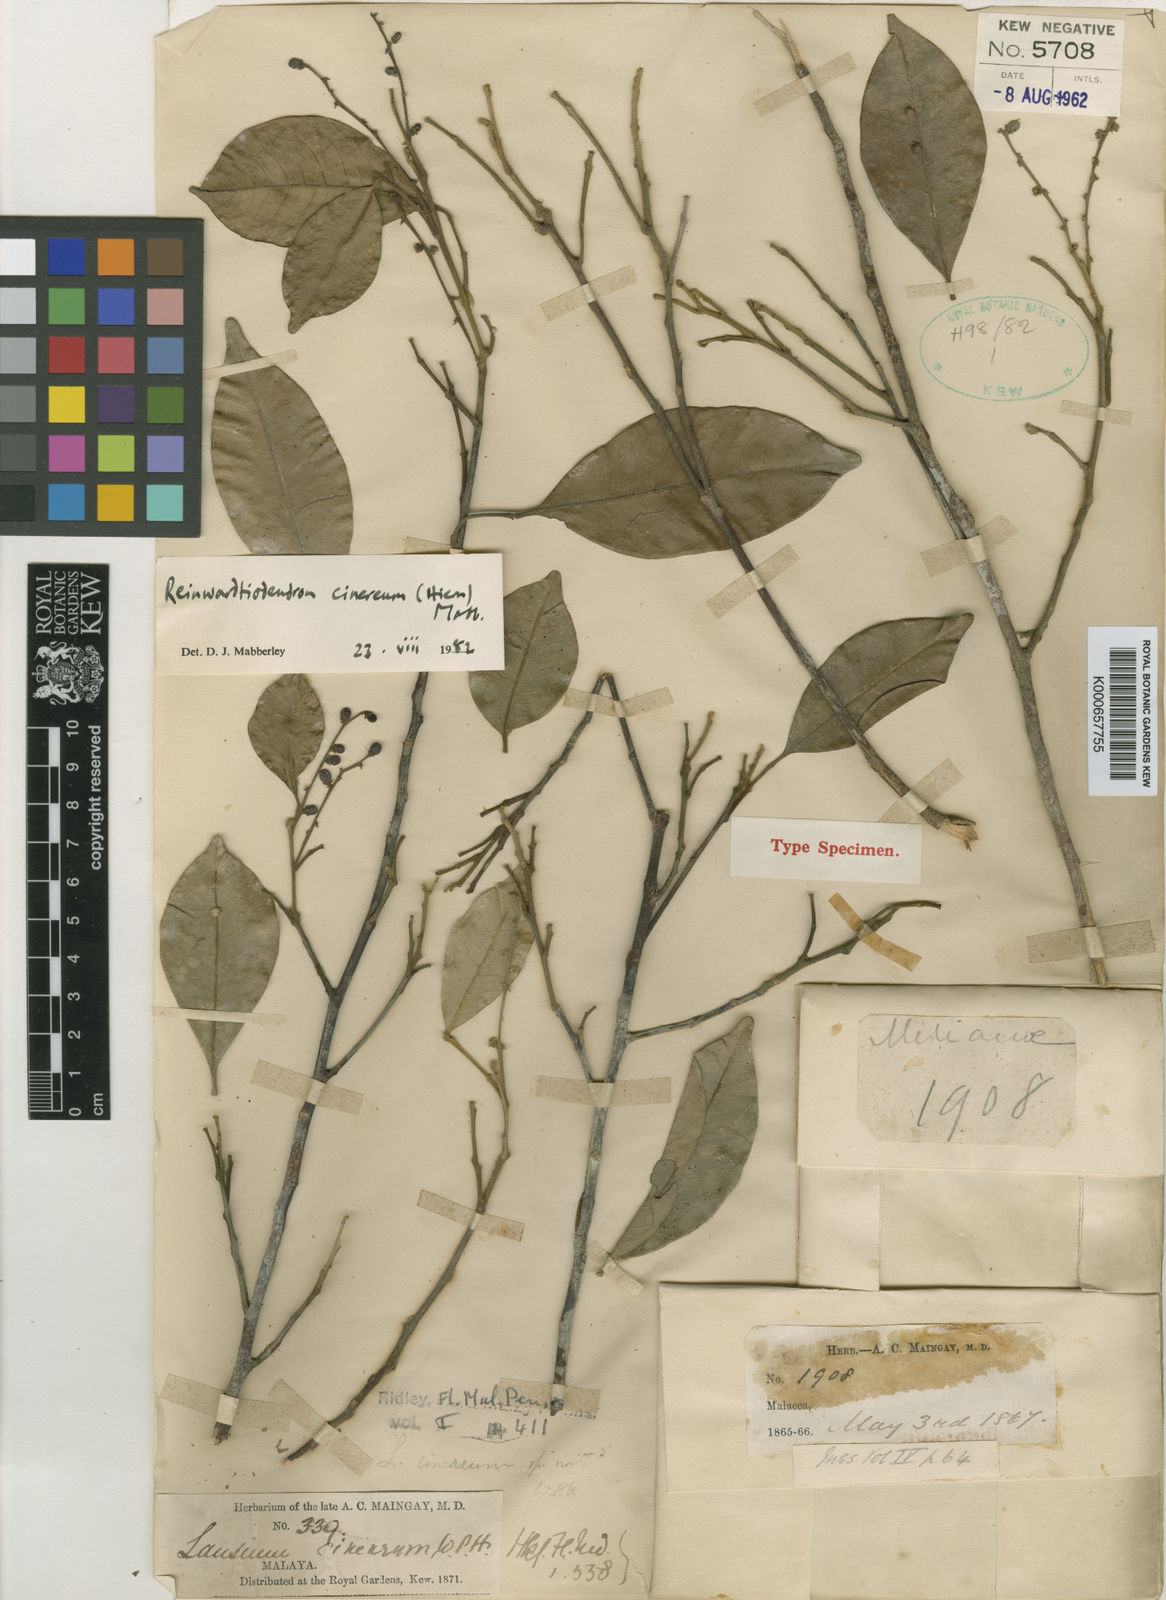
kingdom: Plantae
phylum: Tracheophyta
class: Magnoliopsida
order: Sapindales
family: Meliaceae
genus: Reinwardtiodendron
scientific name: Reinwardtiodendron cinereum
